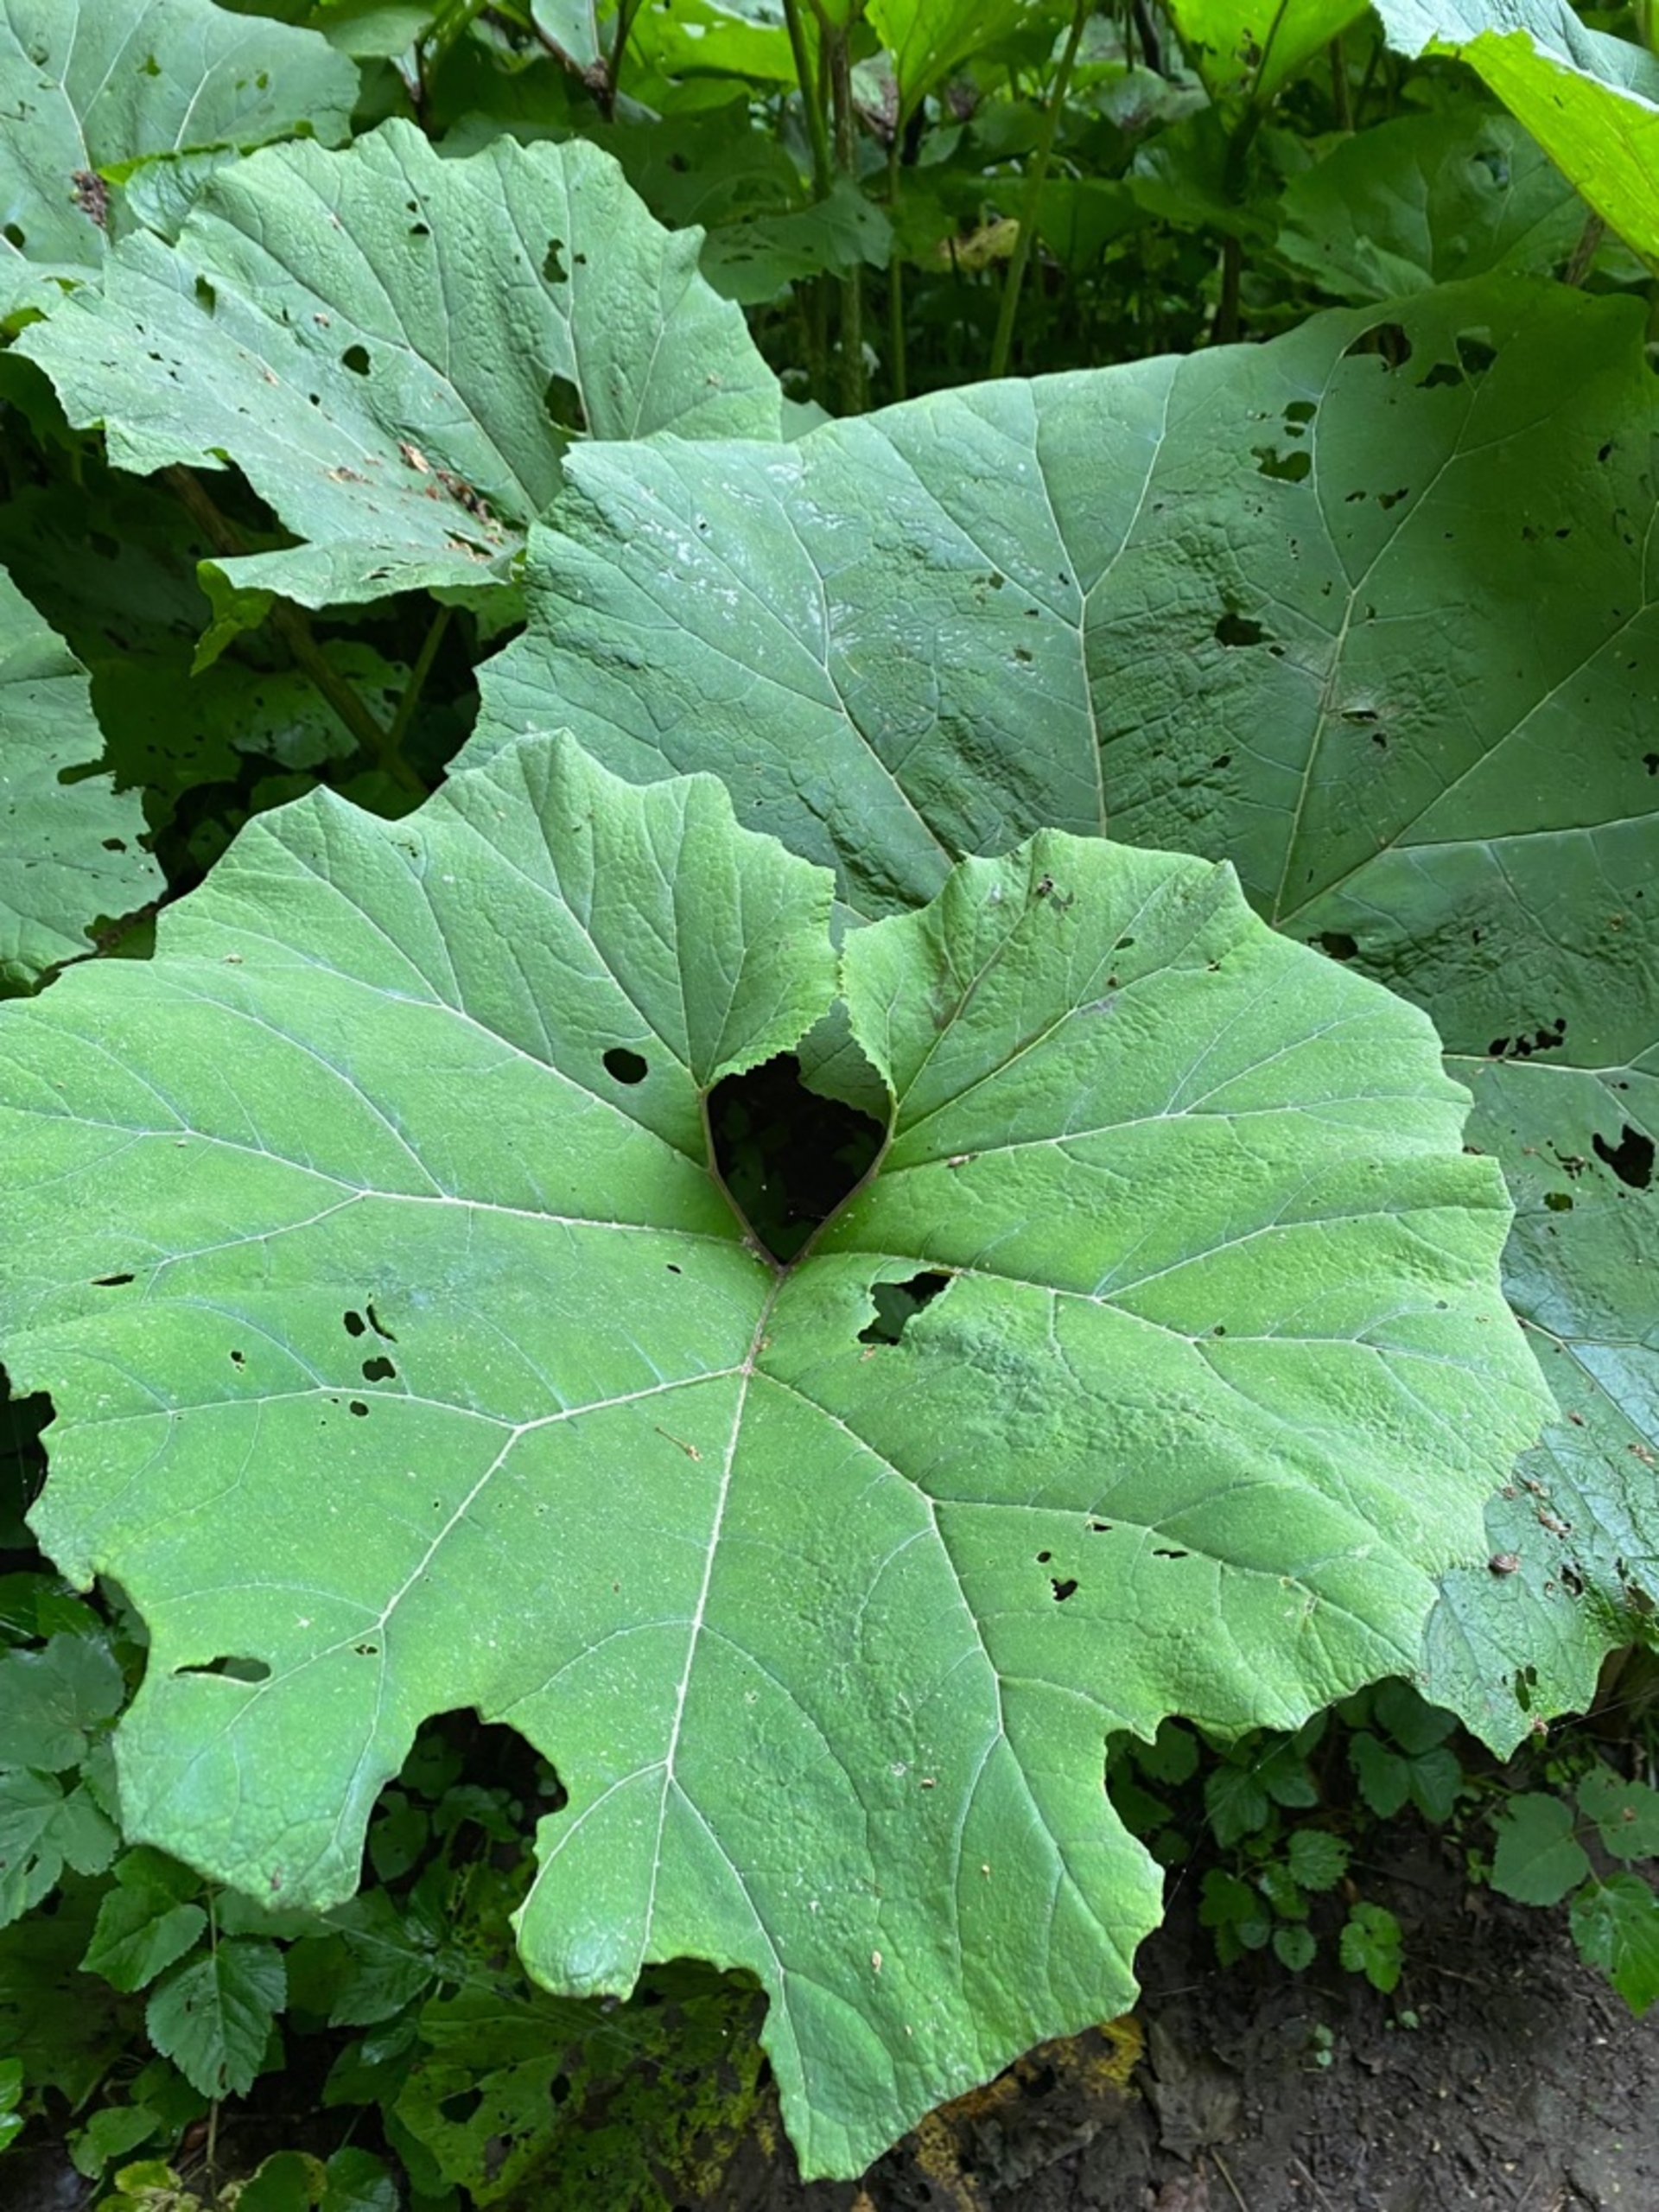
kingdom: Plantae
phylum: Tracheophyta
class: Magnoliopsida
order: Asterales
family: Asteraceae
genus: Petasites
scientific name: Petasites hybridus
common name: Rød hestehov
